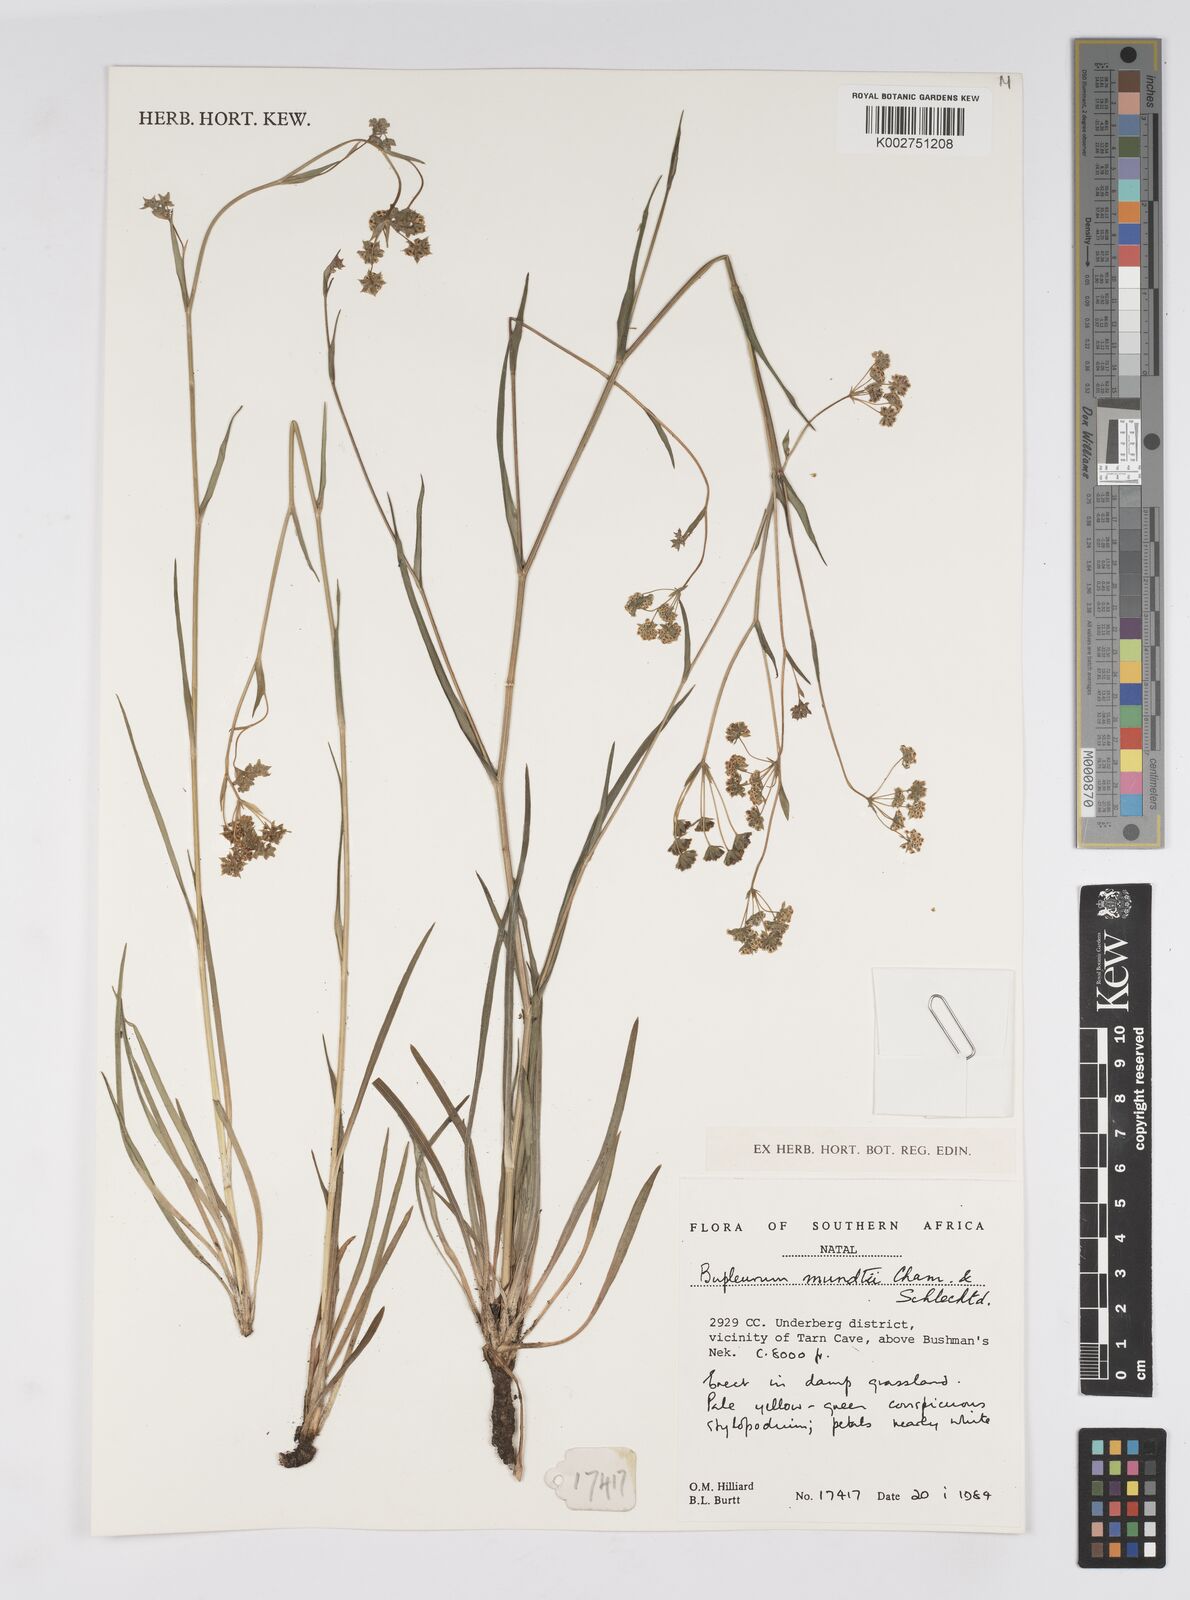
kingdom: Plantae
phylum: Tracheophyta
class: Magnoliopsida
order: Apiales
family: Apiaceae
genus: Bupleurum
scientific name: Bupleurum mundii
